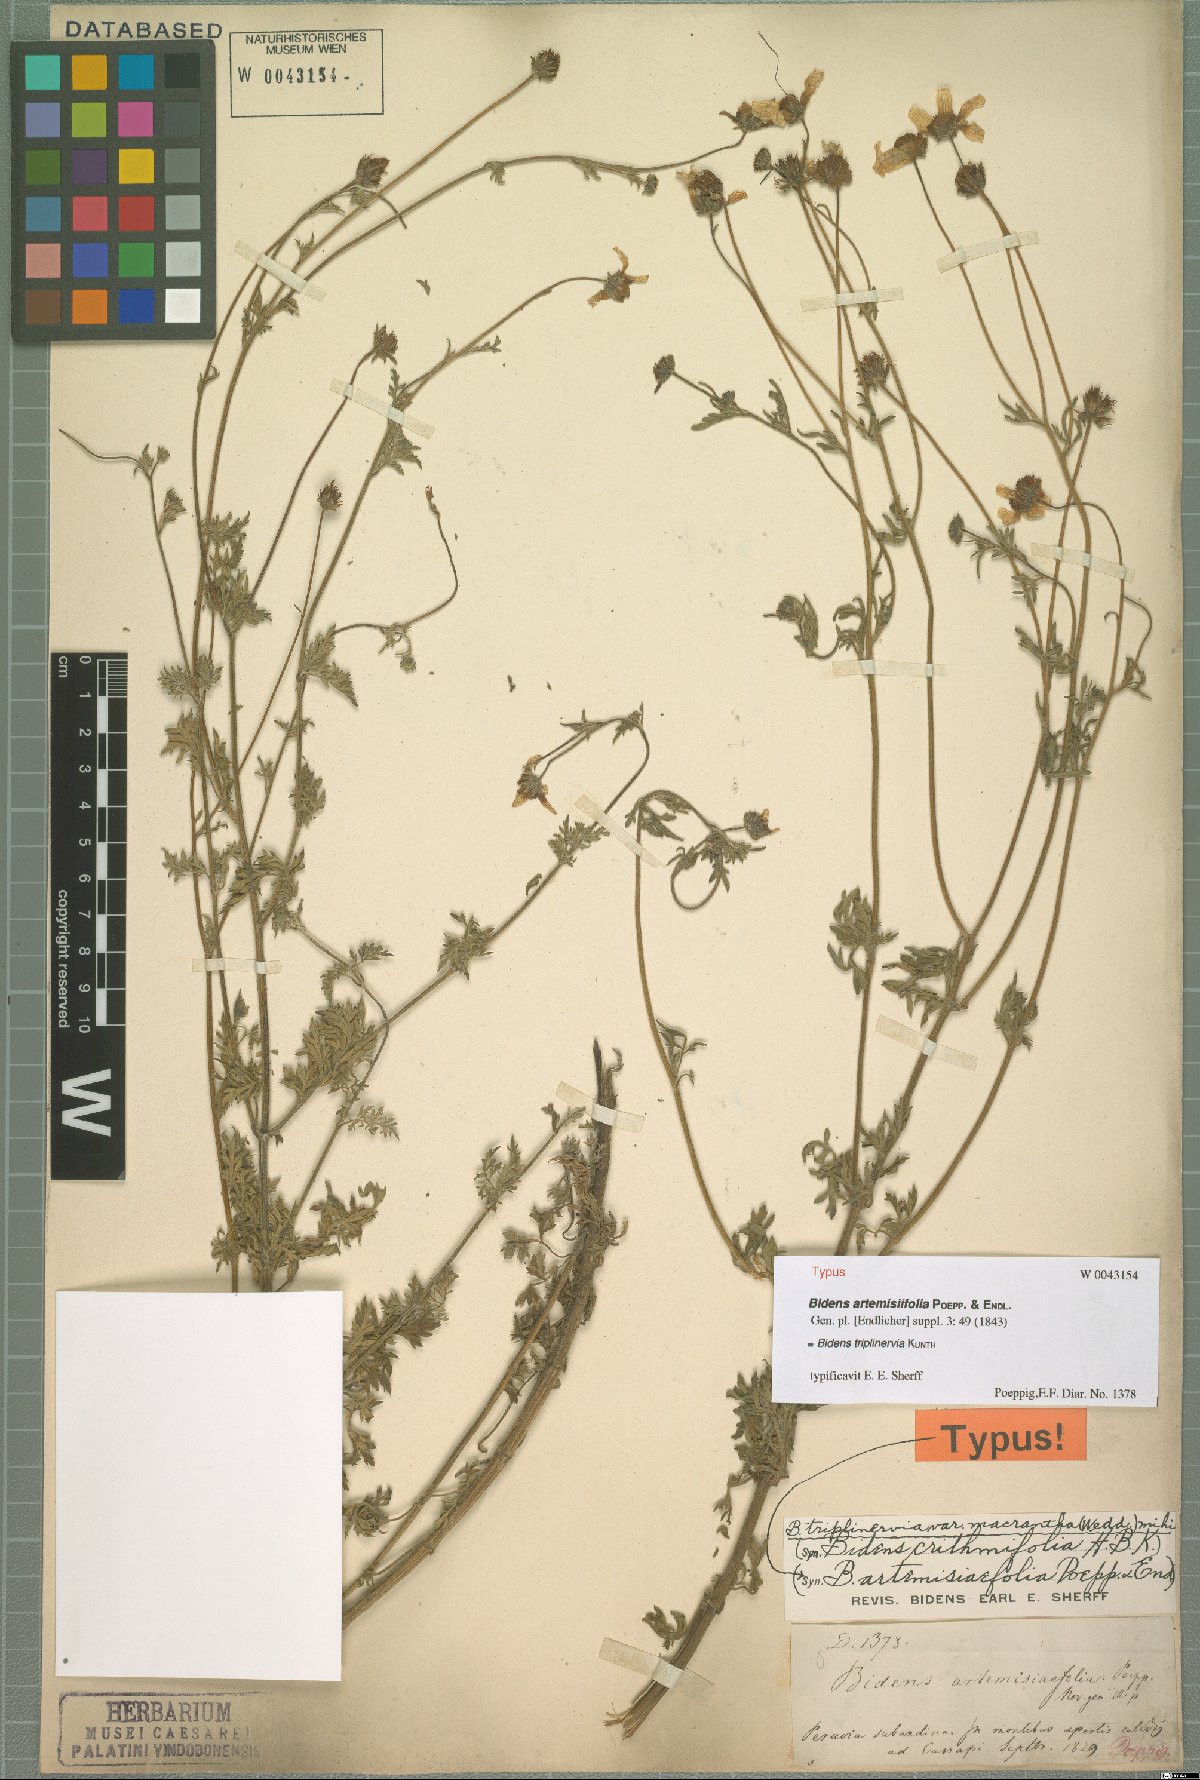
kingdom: Plantae
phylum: Tracheophyta
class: Magnoliopsida
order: Asterales
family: Asteraceae
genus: Bidens
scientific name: Bidens triplinervia
